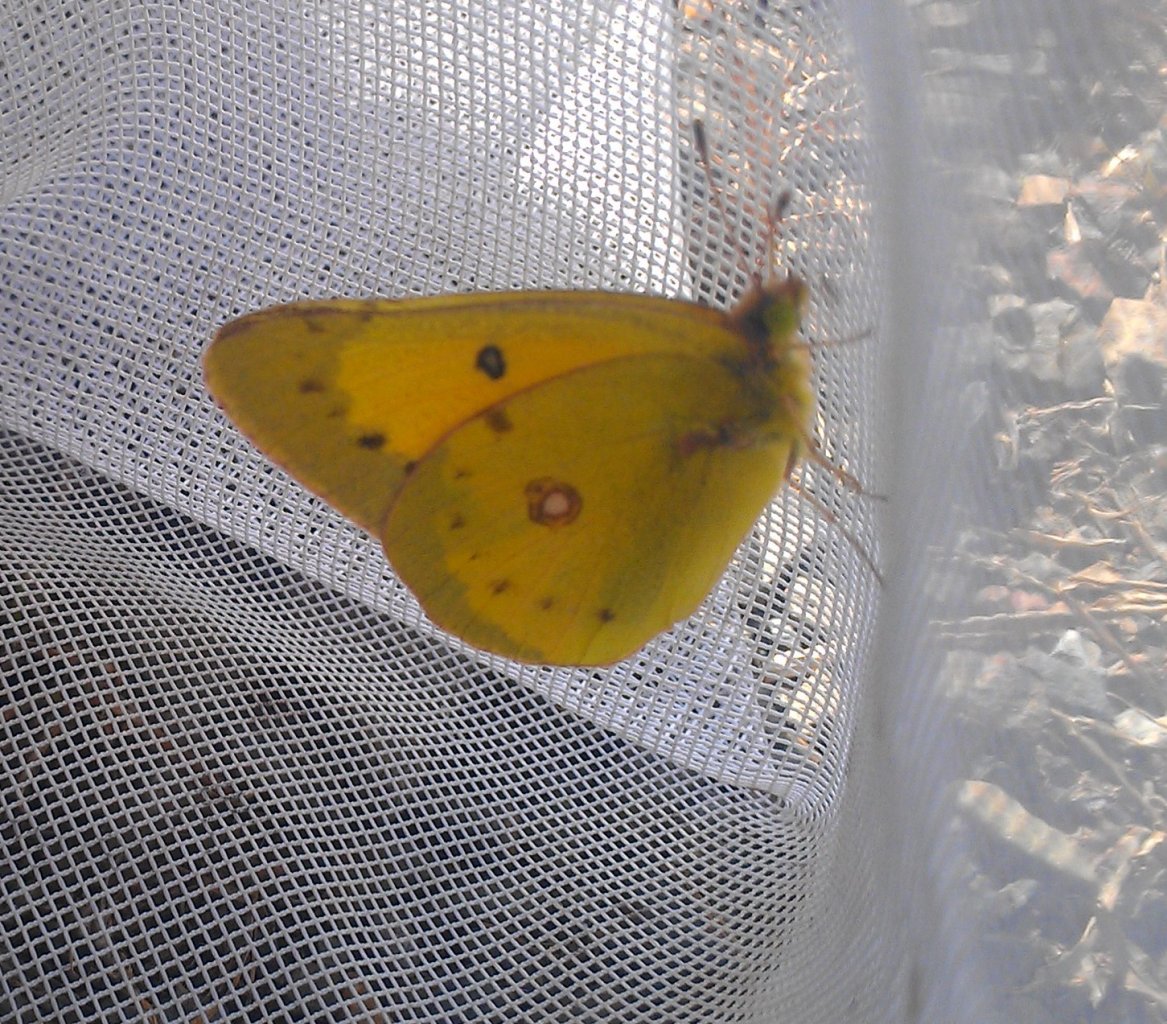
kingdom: Animalia
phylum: Arthropoda
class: Insecta
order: Lepidoptera
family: Pieridae
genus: Colias
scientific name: Colias eurytheme
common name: Orange Sulphur
